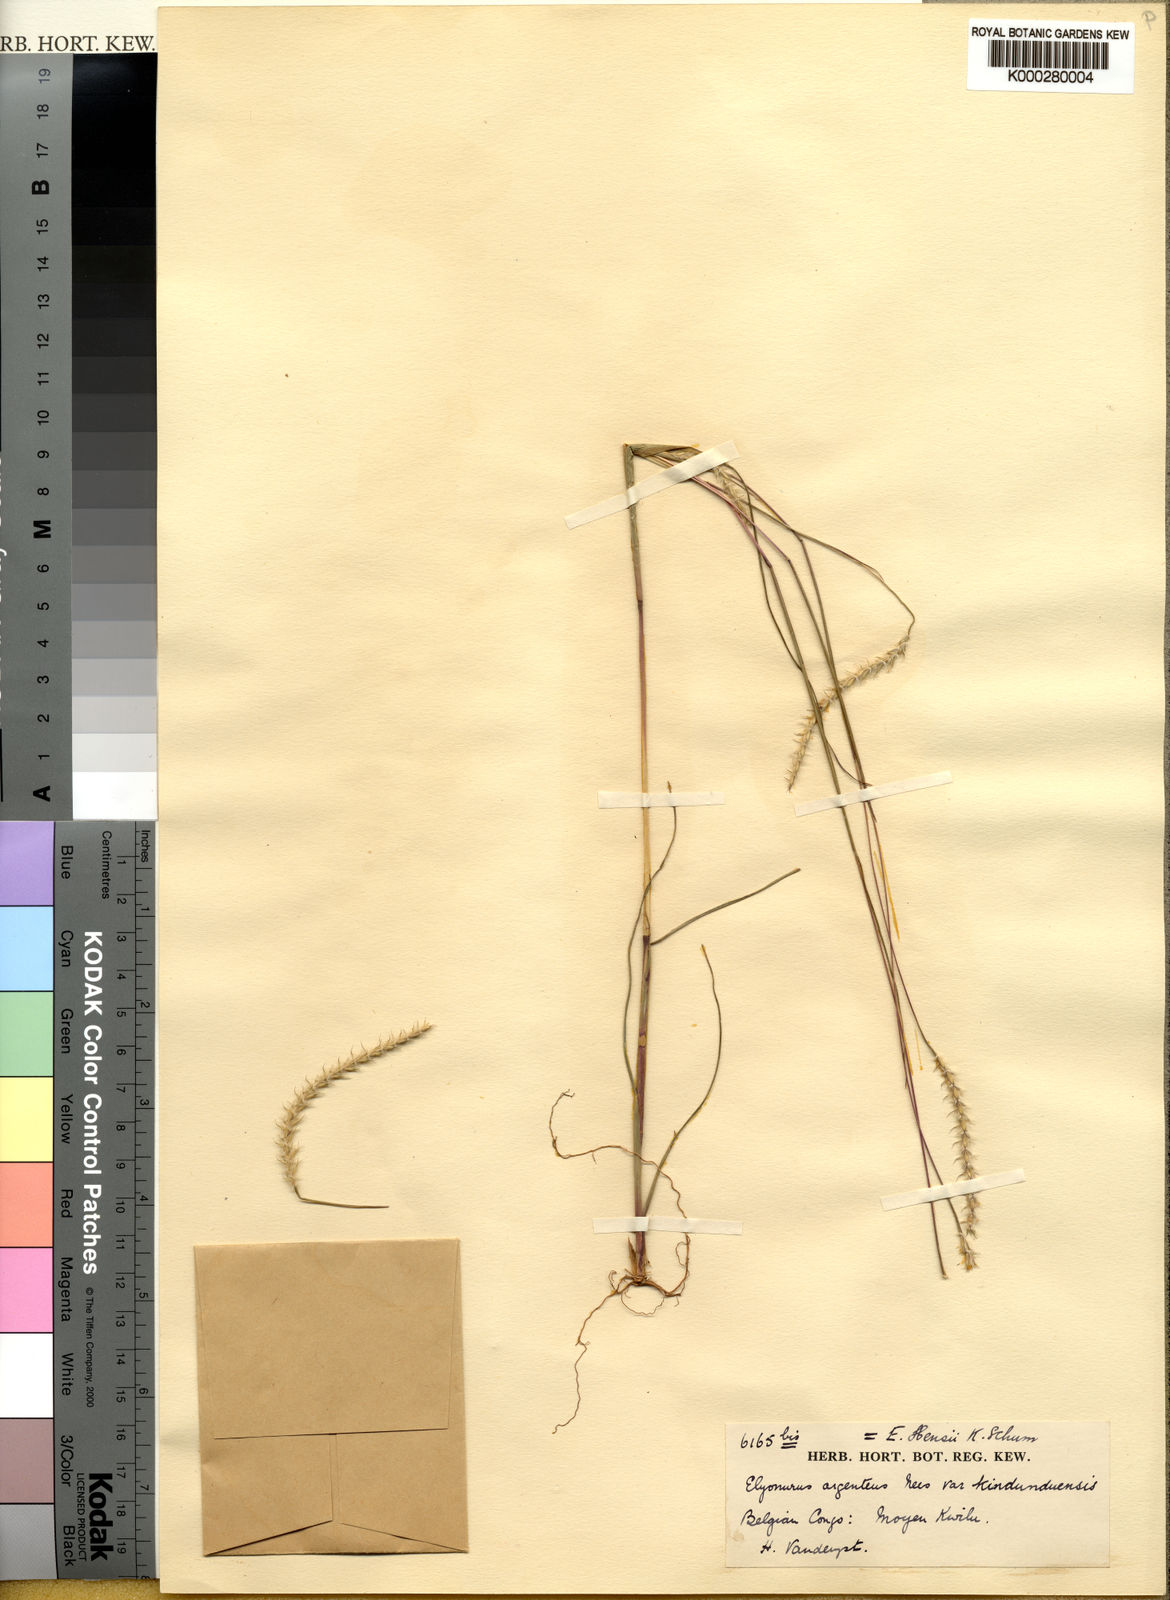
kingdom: Plantae
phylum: Tracheophyta
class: Liliopsida
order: Poales
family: Poaceae
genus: Elionurus
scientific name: Elionurus hensii
